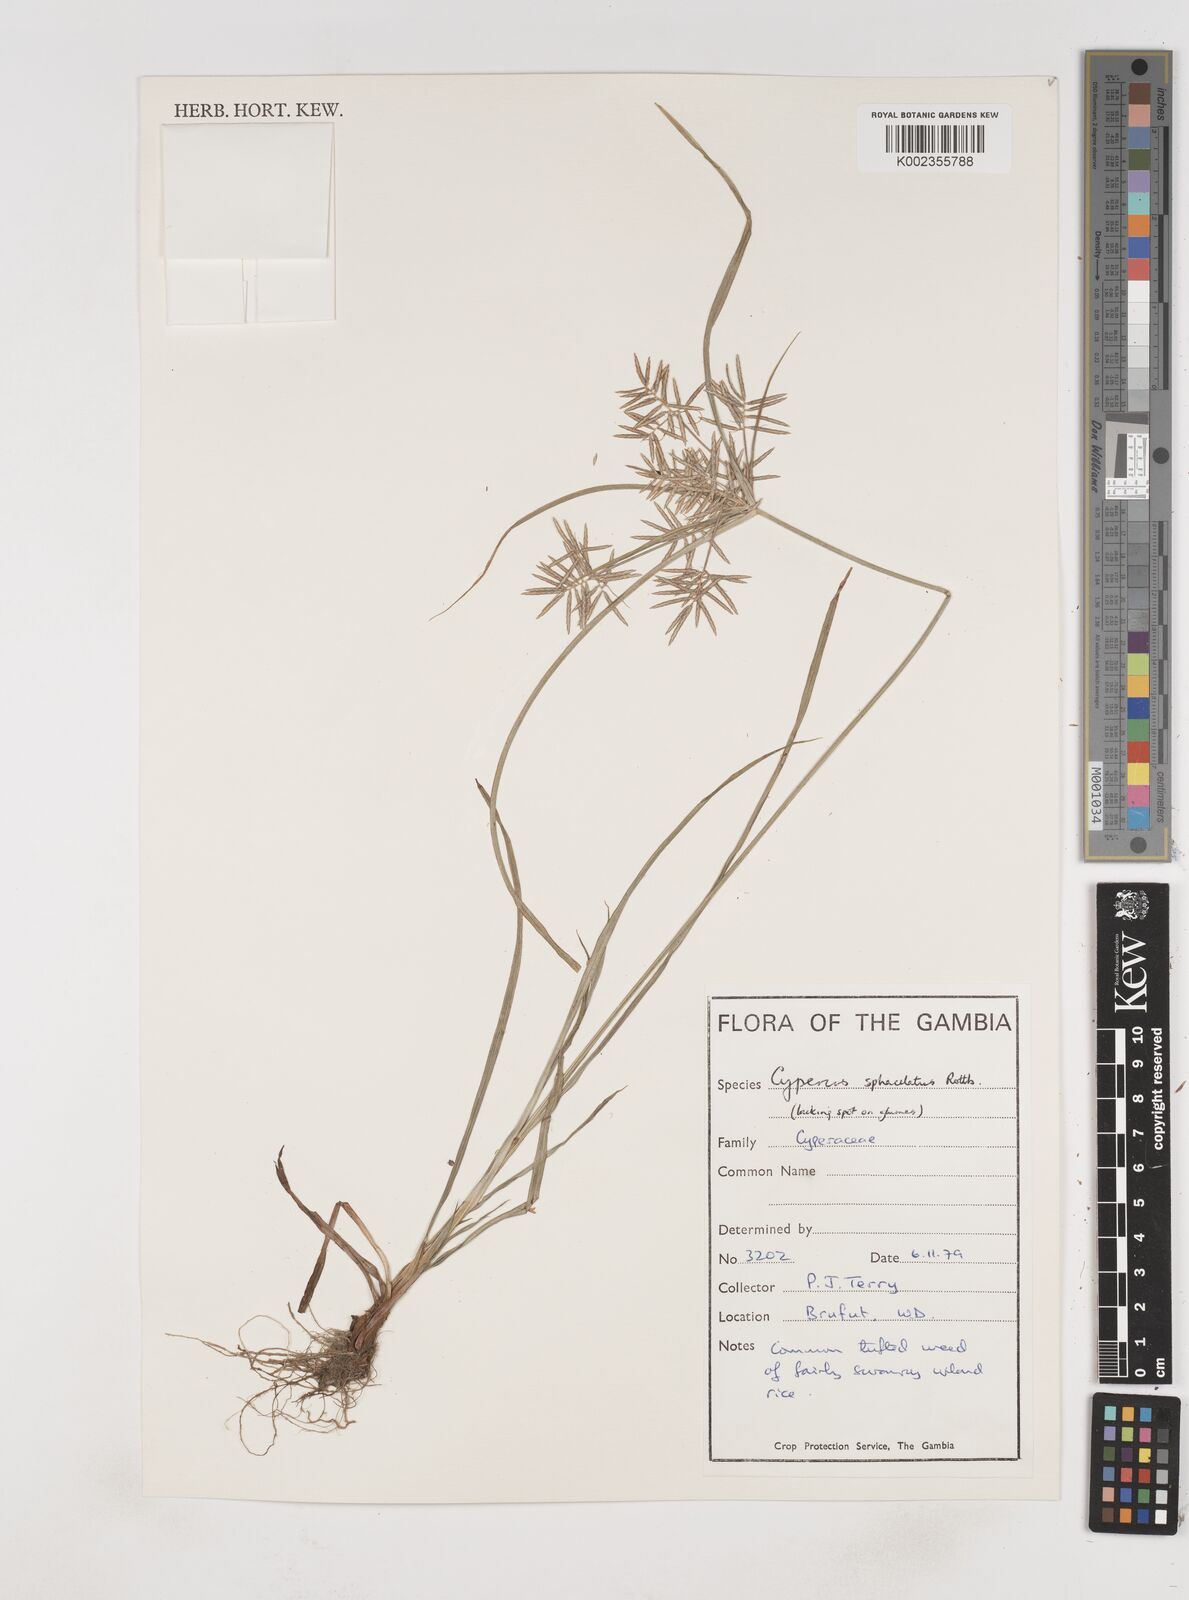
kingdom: Plantae
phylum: Tracheophyta
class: Liliopsida
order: Poales
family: Cyperaceae
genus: Cyperus
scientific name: Cyperus sphacelatus
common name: Roadside flatsedge
